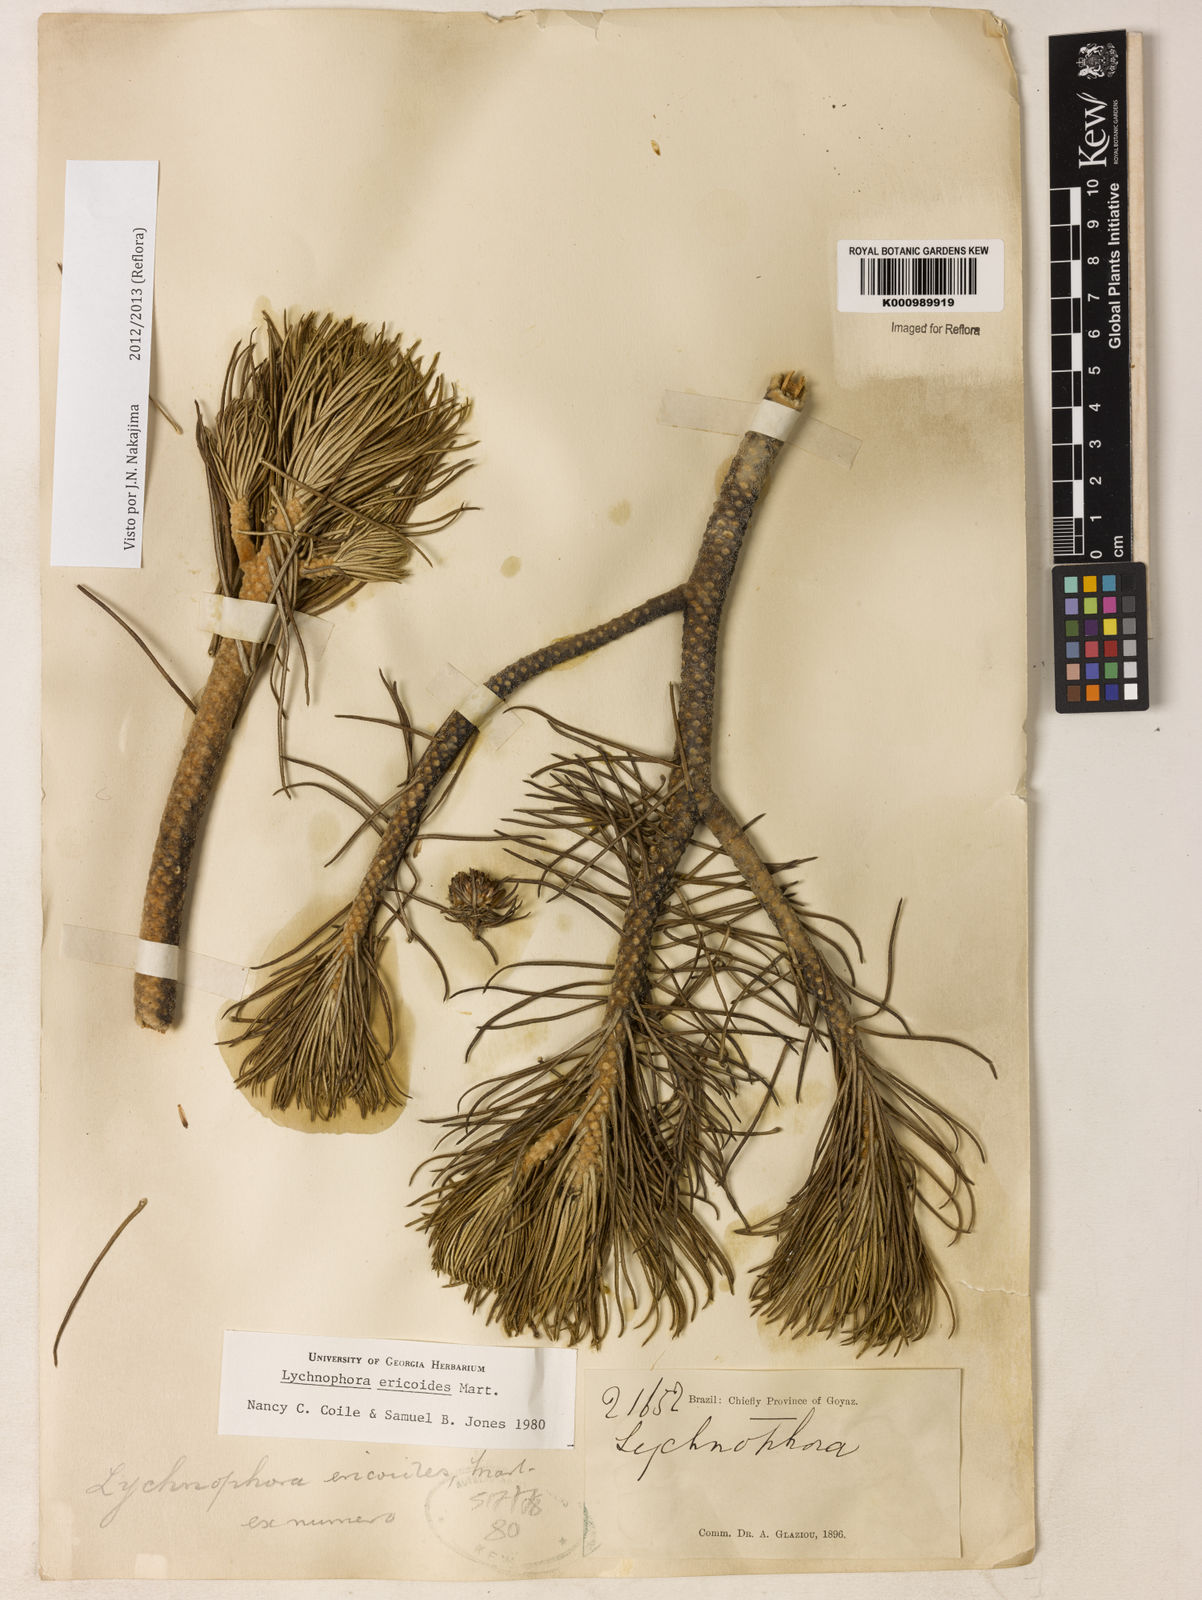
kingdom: Plantae
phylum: Tracheophyta
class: Magnoliopsida
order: Asterales
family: Asteraceae
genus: Lychnophora
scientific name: Lychnophora ericoides
